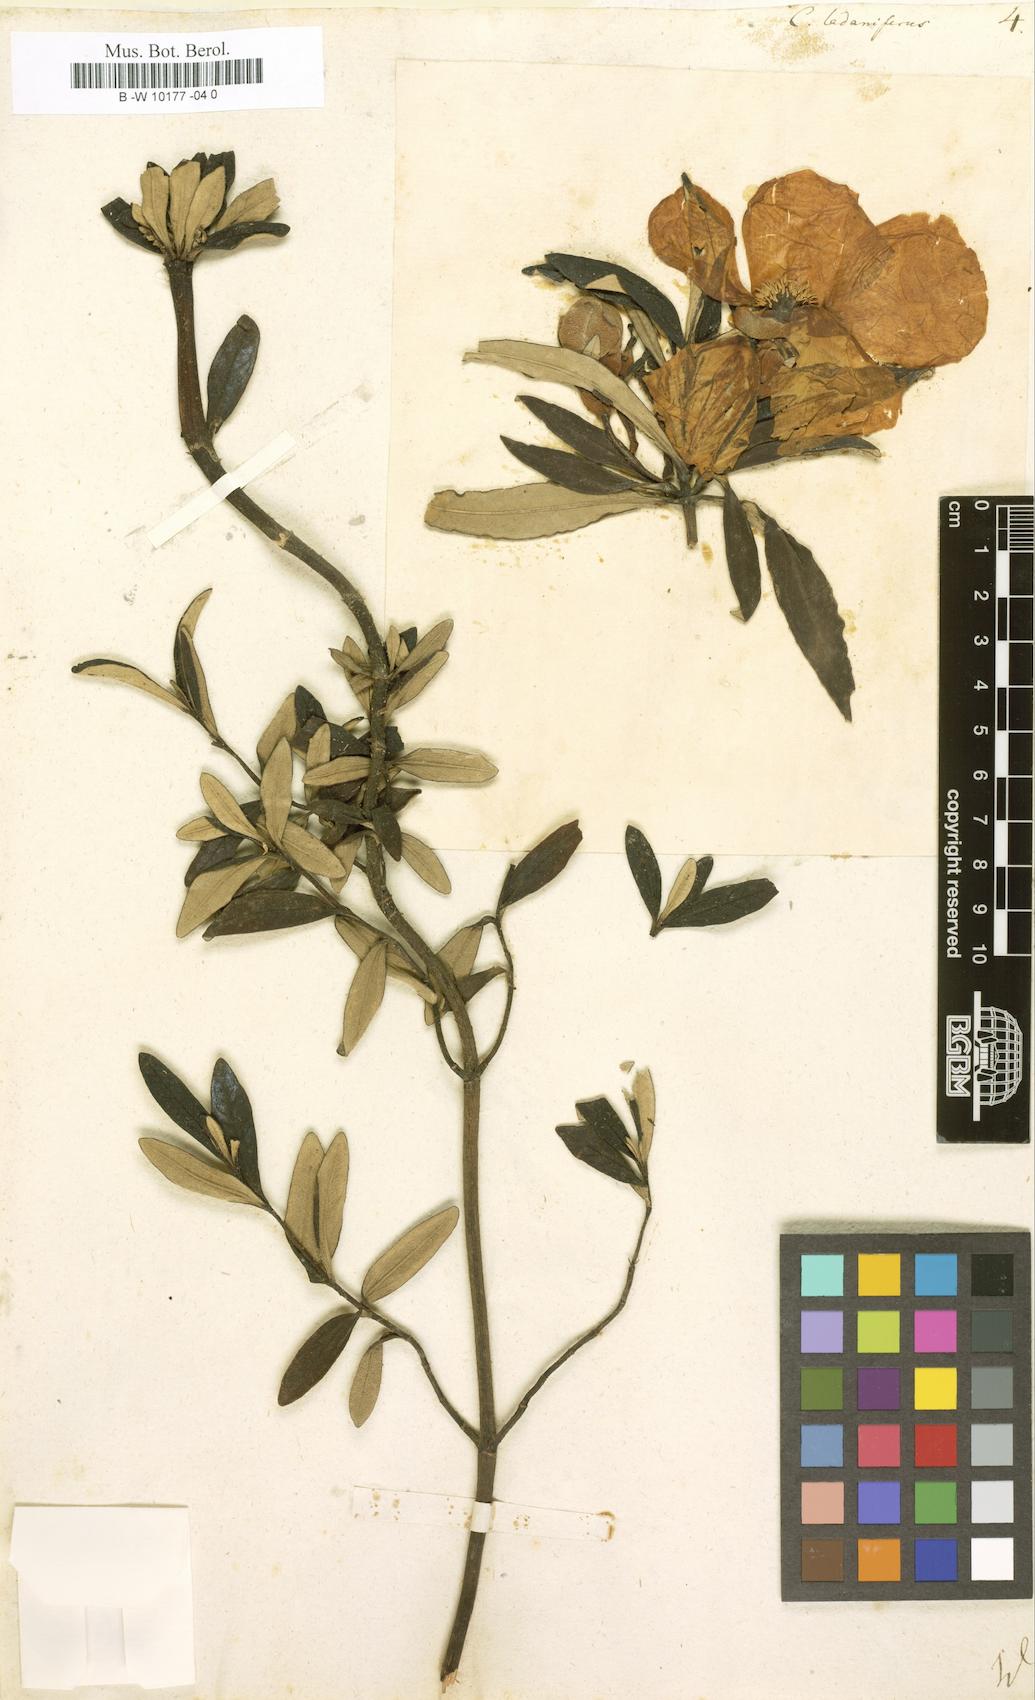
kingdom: Plantae
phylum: Tracheophyta
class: Magnoliopsida
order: Malvales
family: Cistaceae
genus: Cistus
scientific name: Cistus creticus
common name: Cretan rockrose
